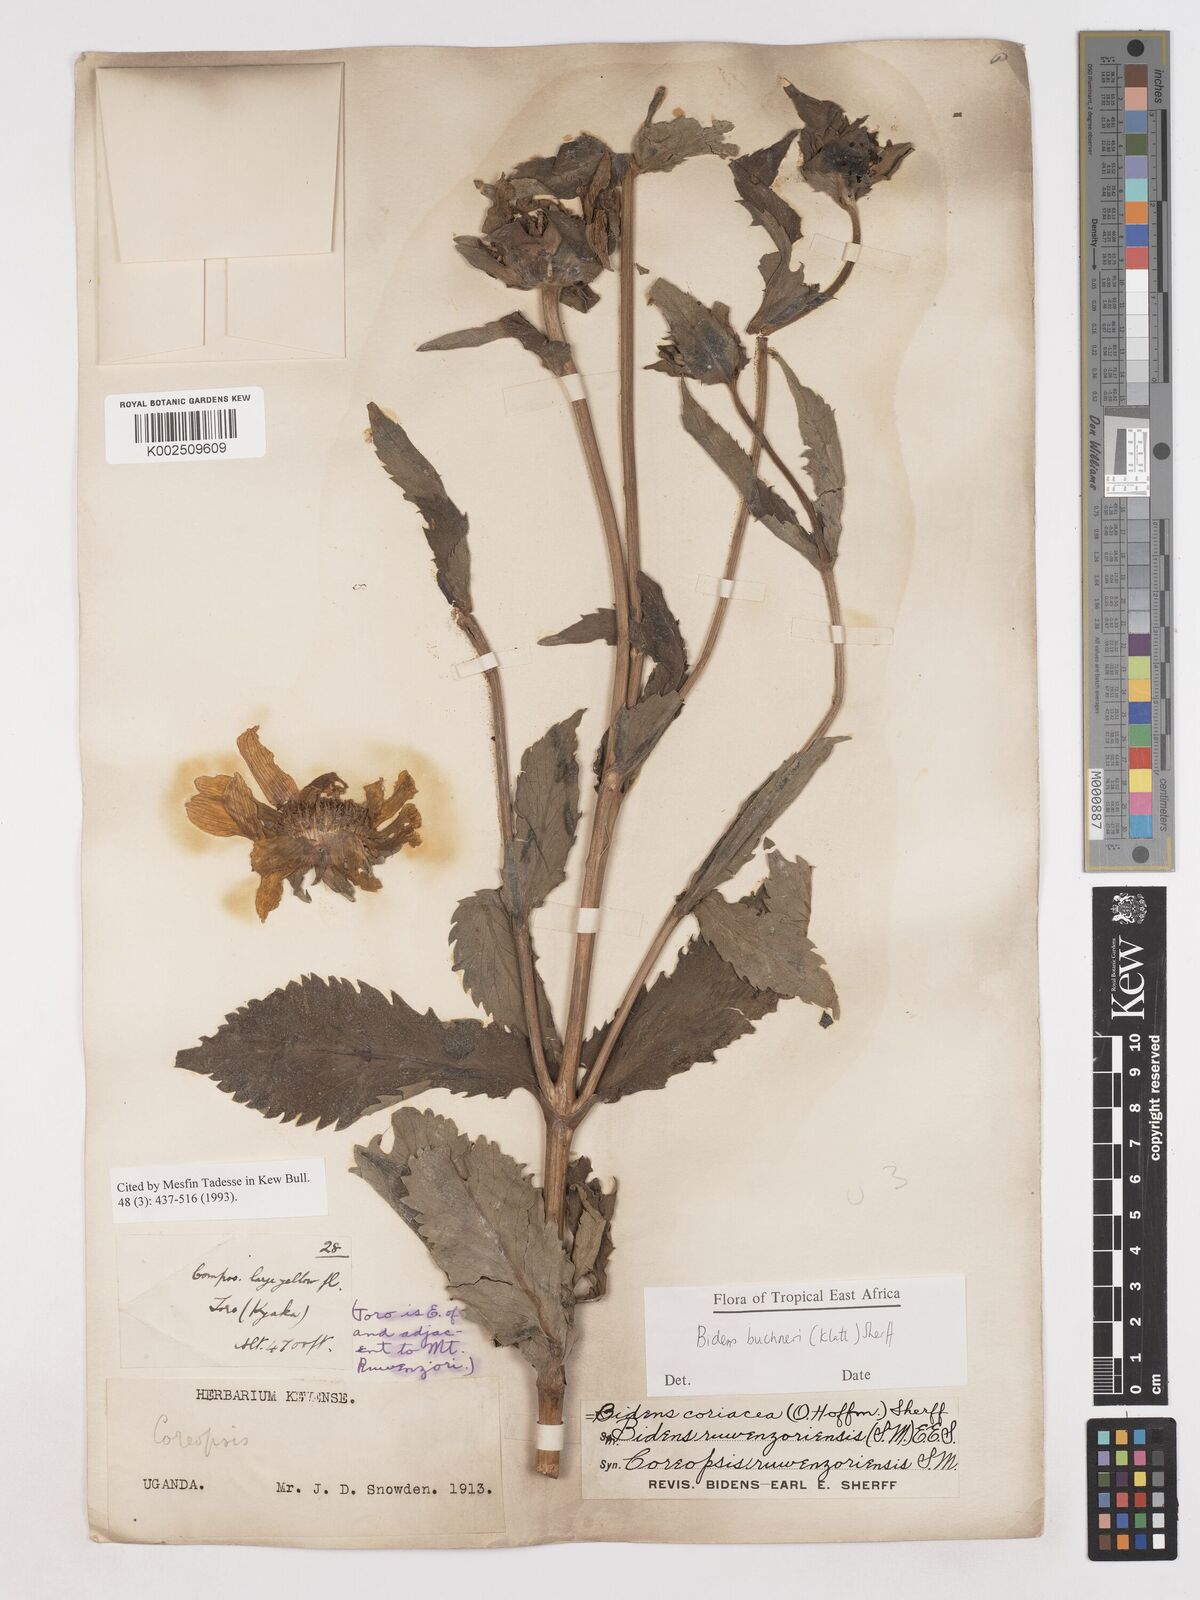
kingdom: Plantae
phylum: Tracheophyta
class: Magnoliopsida
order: Asterales
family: Asteraceae
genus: Bidens
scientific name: Bidens buchneri
